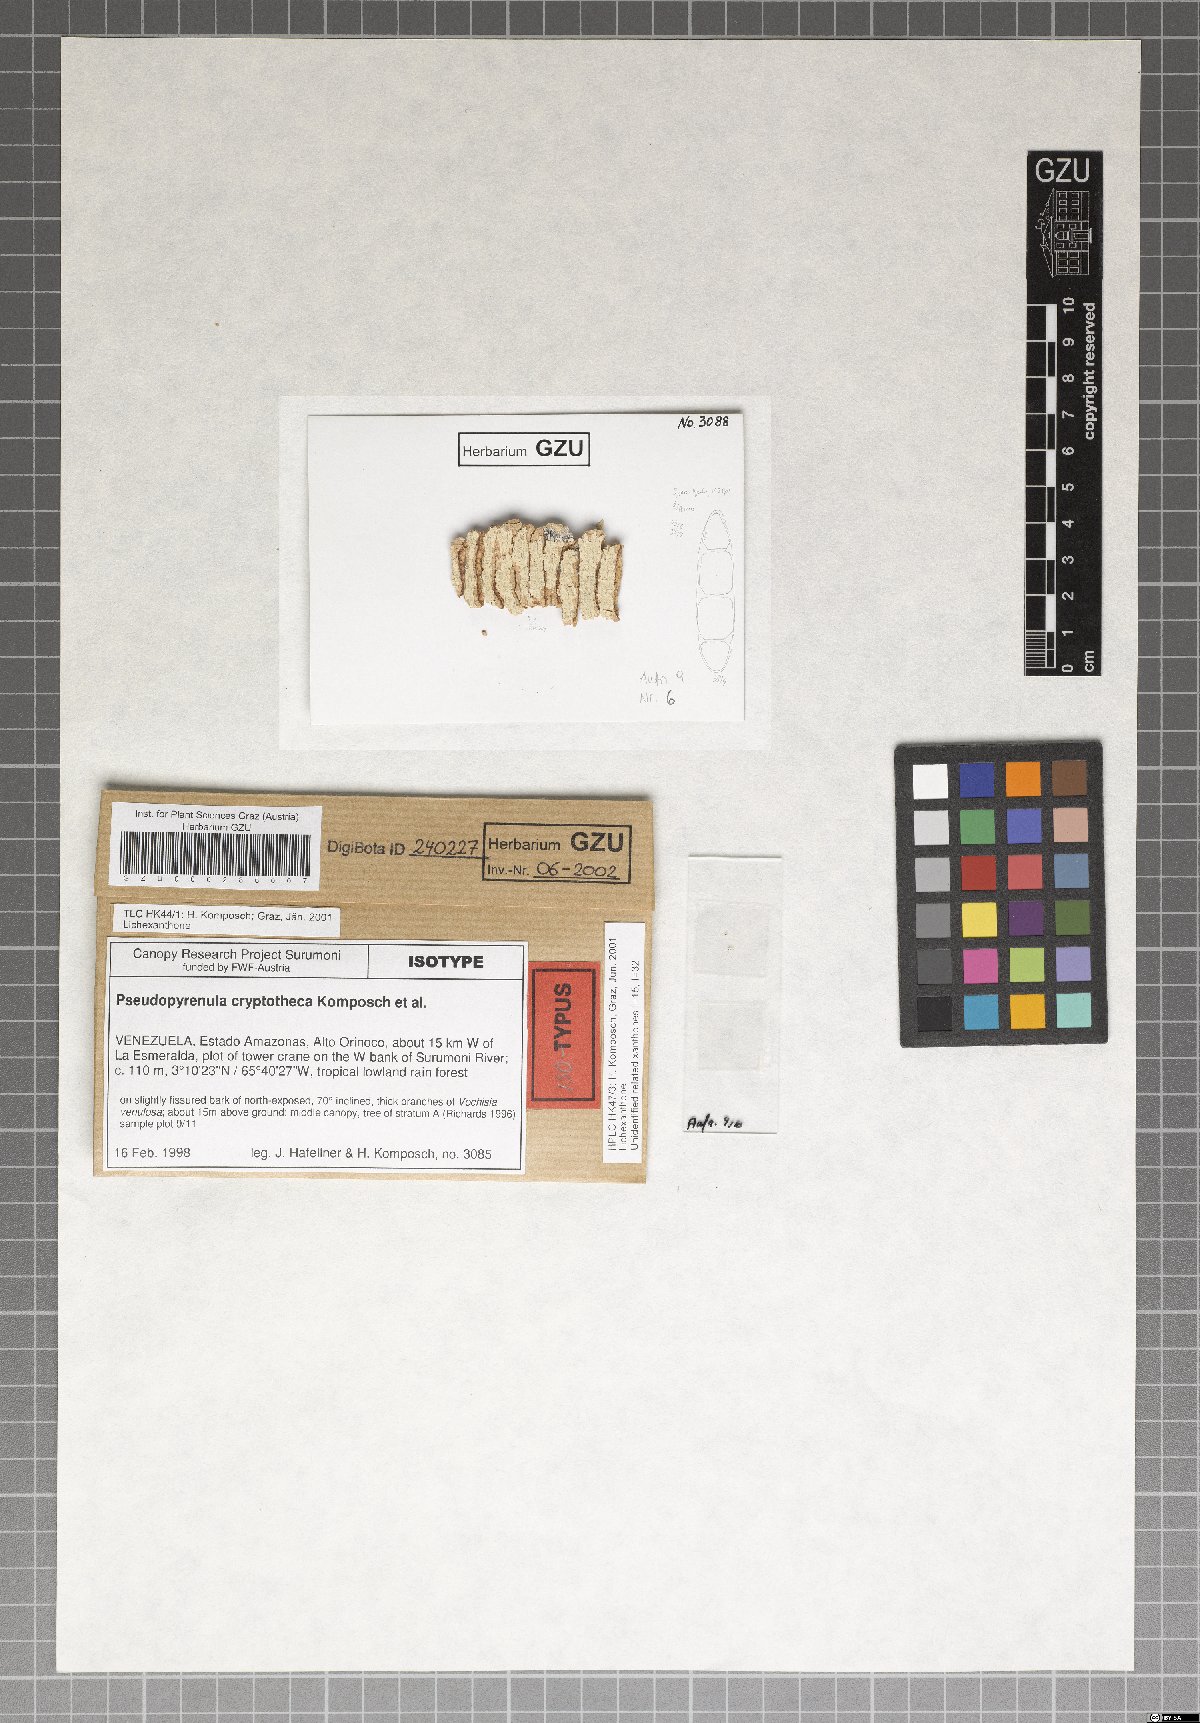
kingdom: Fungi
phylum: Ascomycota
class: Dothideomycetes
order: Trypetheliales
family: Trypetheliaceae
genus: Pseudopyrenula
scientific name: Pseudopyrenula cryptotheca
